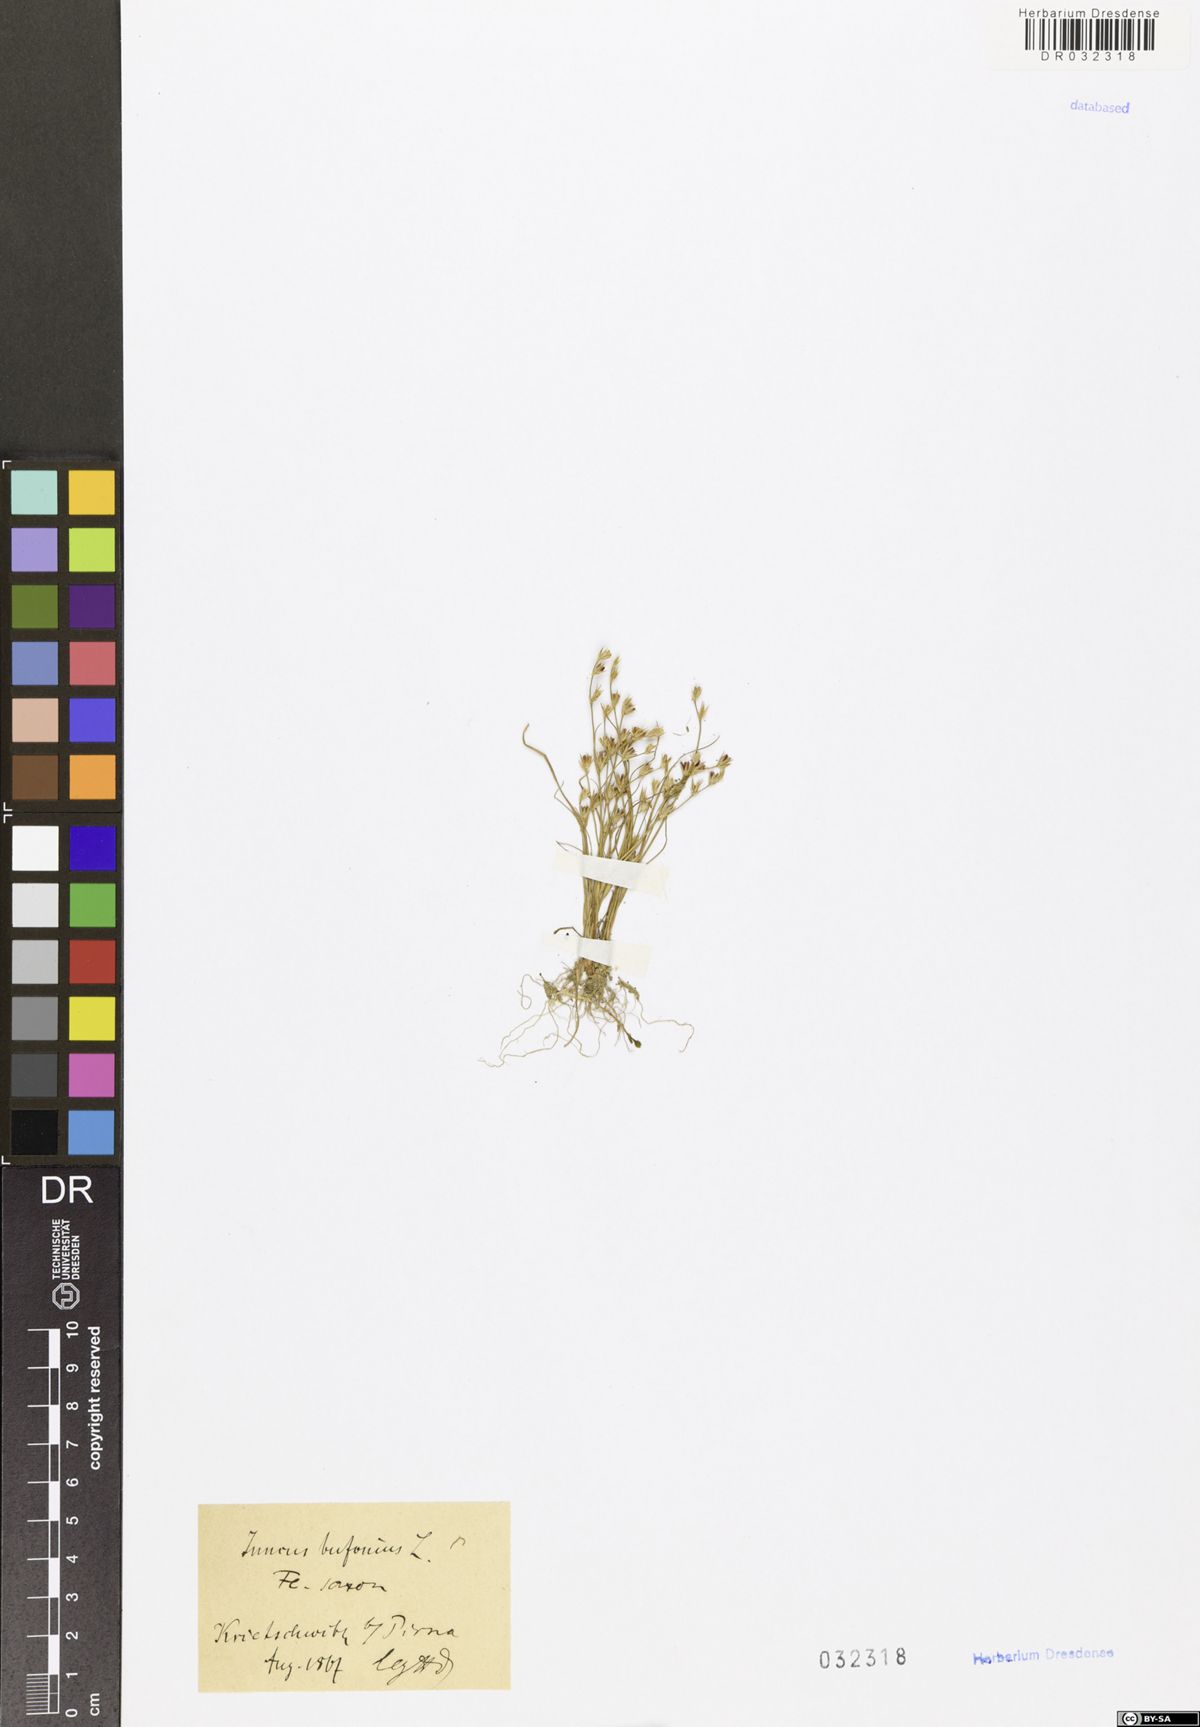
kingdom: Plantae
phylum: Tracheophyta
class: Liliopsida
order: Poales
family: Juncaceae
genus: Juncus
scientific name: Juncus bufonius
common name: Toad rush
